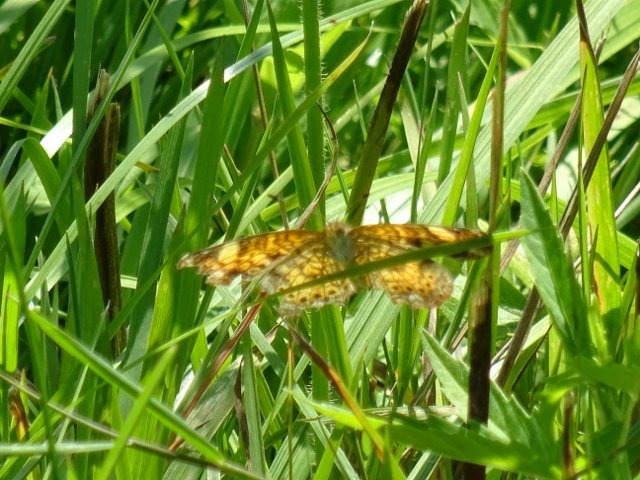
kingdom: Animalia
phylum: Arthropoda
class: Insecta
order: Lepidoptera
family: Nymphalidae
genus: Phyciodes
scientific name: Phyciodes
